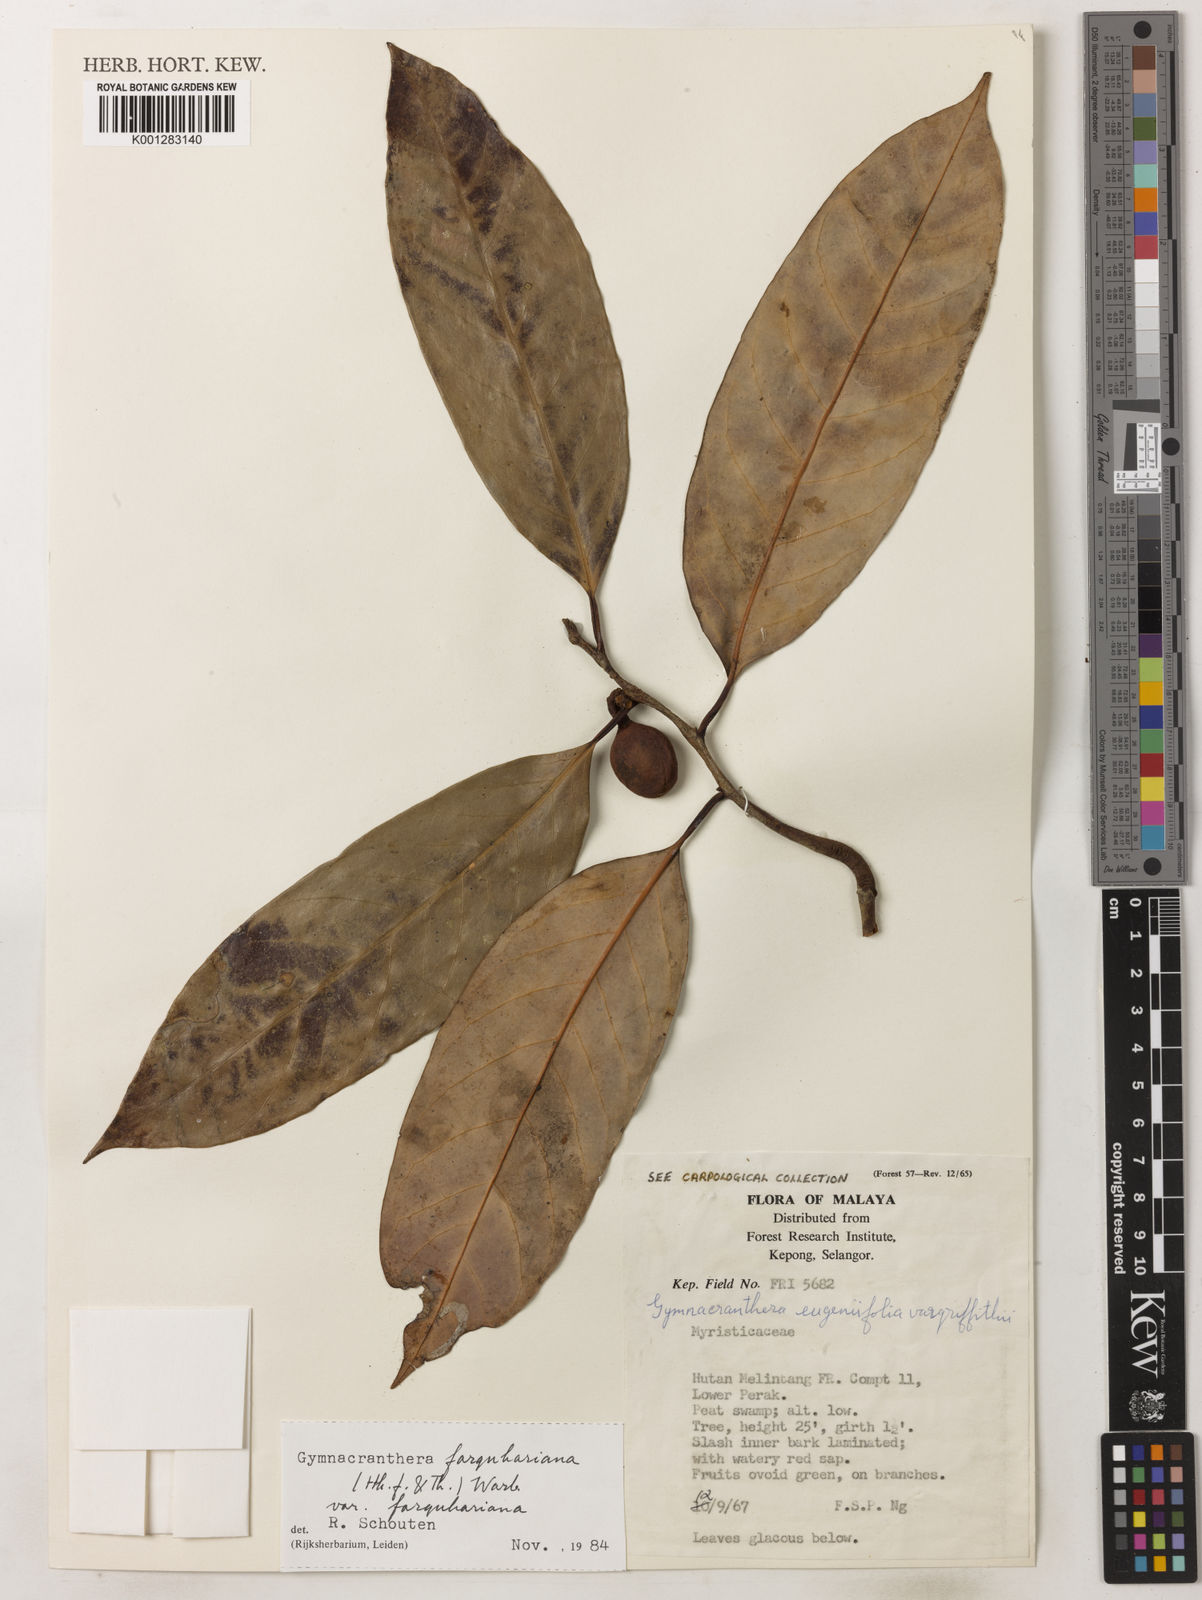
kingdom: Plantae
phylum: Tracheophyta
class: Magnoliopsida
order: Magnoliales
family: Myristicaceae
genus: Gymnacranthera
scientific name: Gymnacranthera farquhariana
